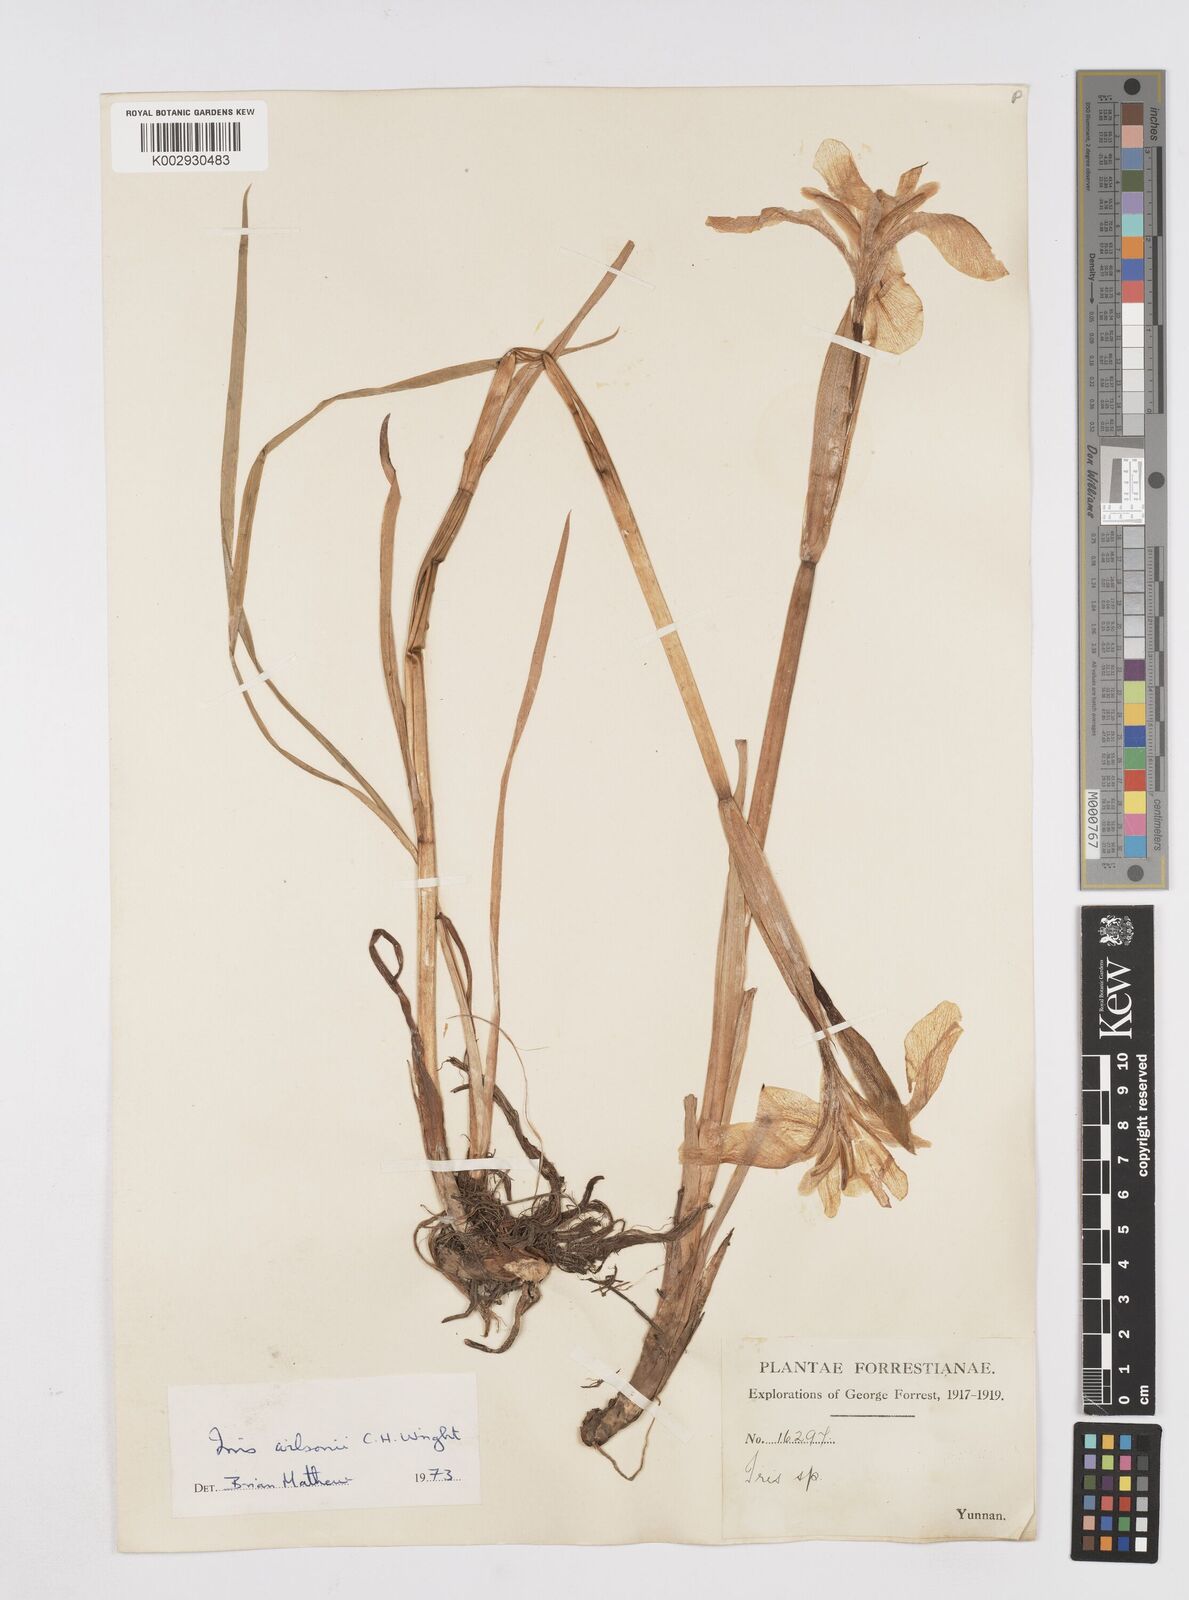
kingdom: Plantae
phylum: Tracheophyta
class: Liliopsida
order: Asparagales
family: Iridaceae
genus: Iris
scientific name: Iris wilsonii
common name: Yellow-flower iris
